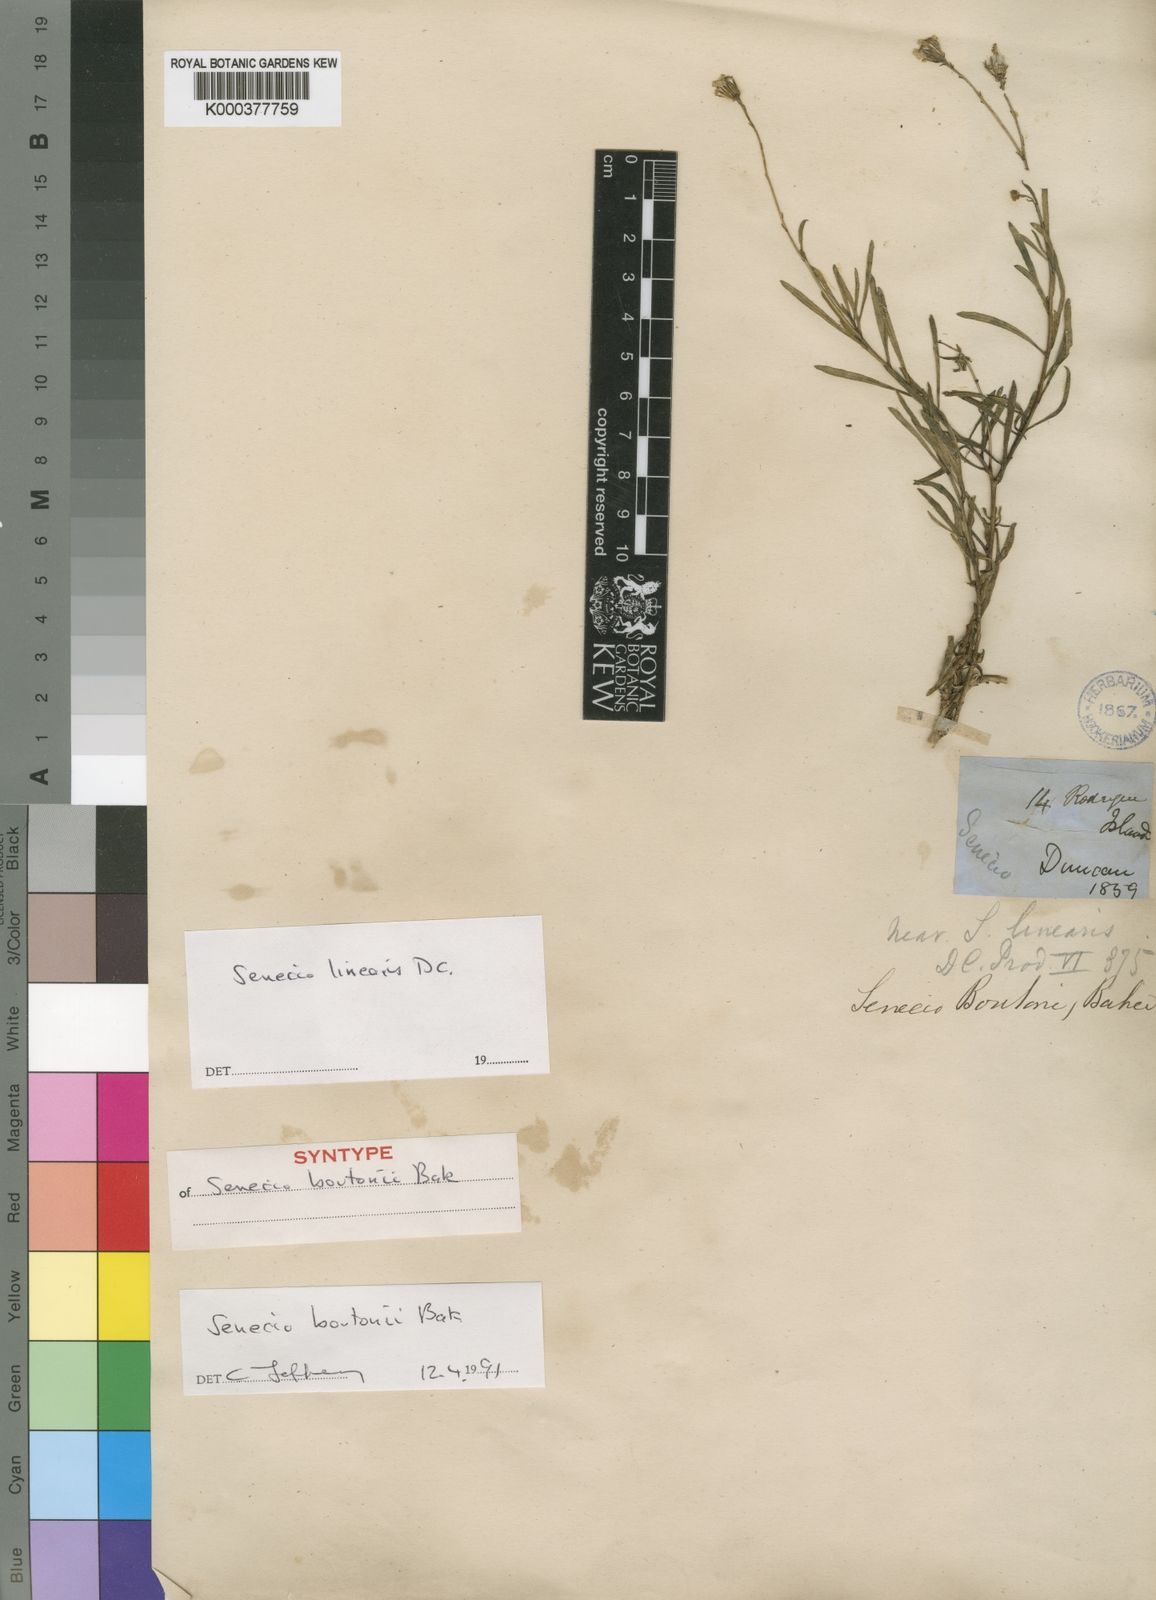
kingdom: Plantae
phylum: Tracheophyta
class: Magnoliopsida
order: Asterales
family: Asteraceae
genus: Senecio
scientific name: Senecio boutonii
